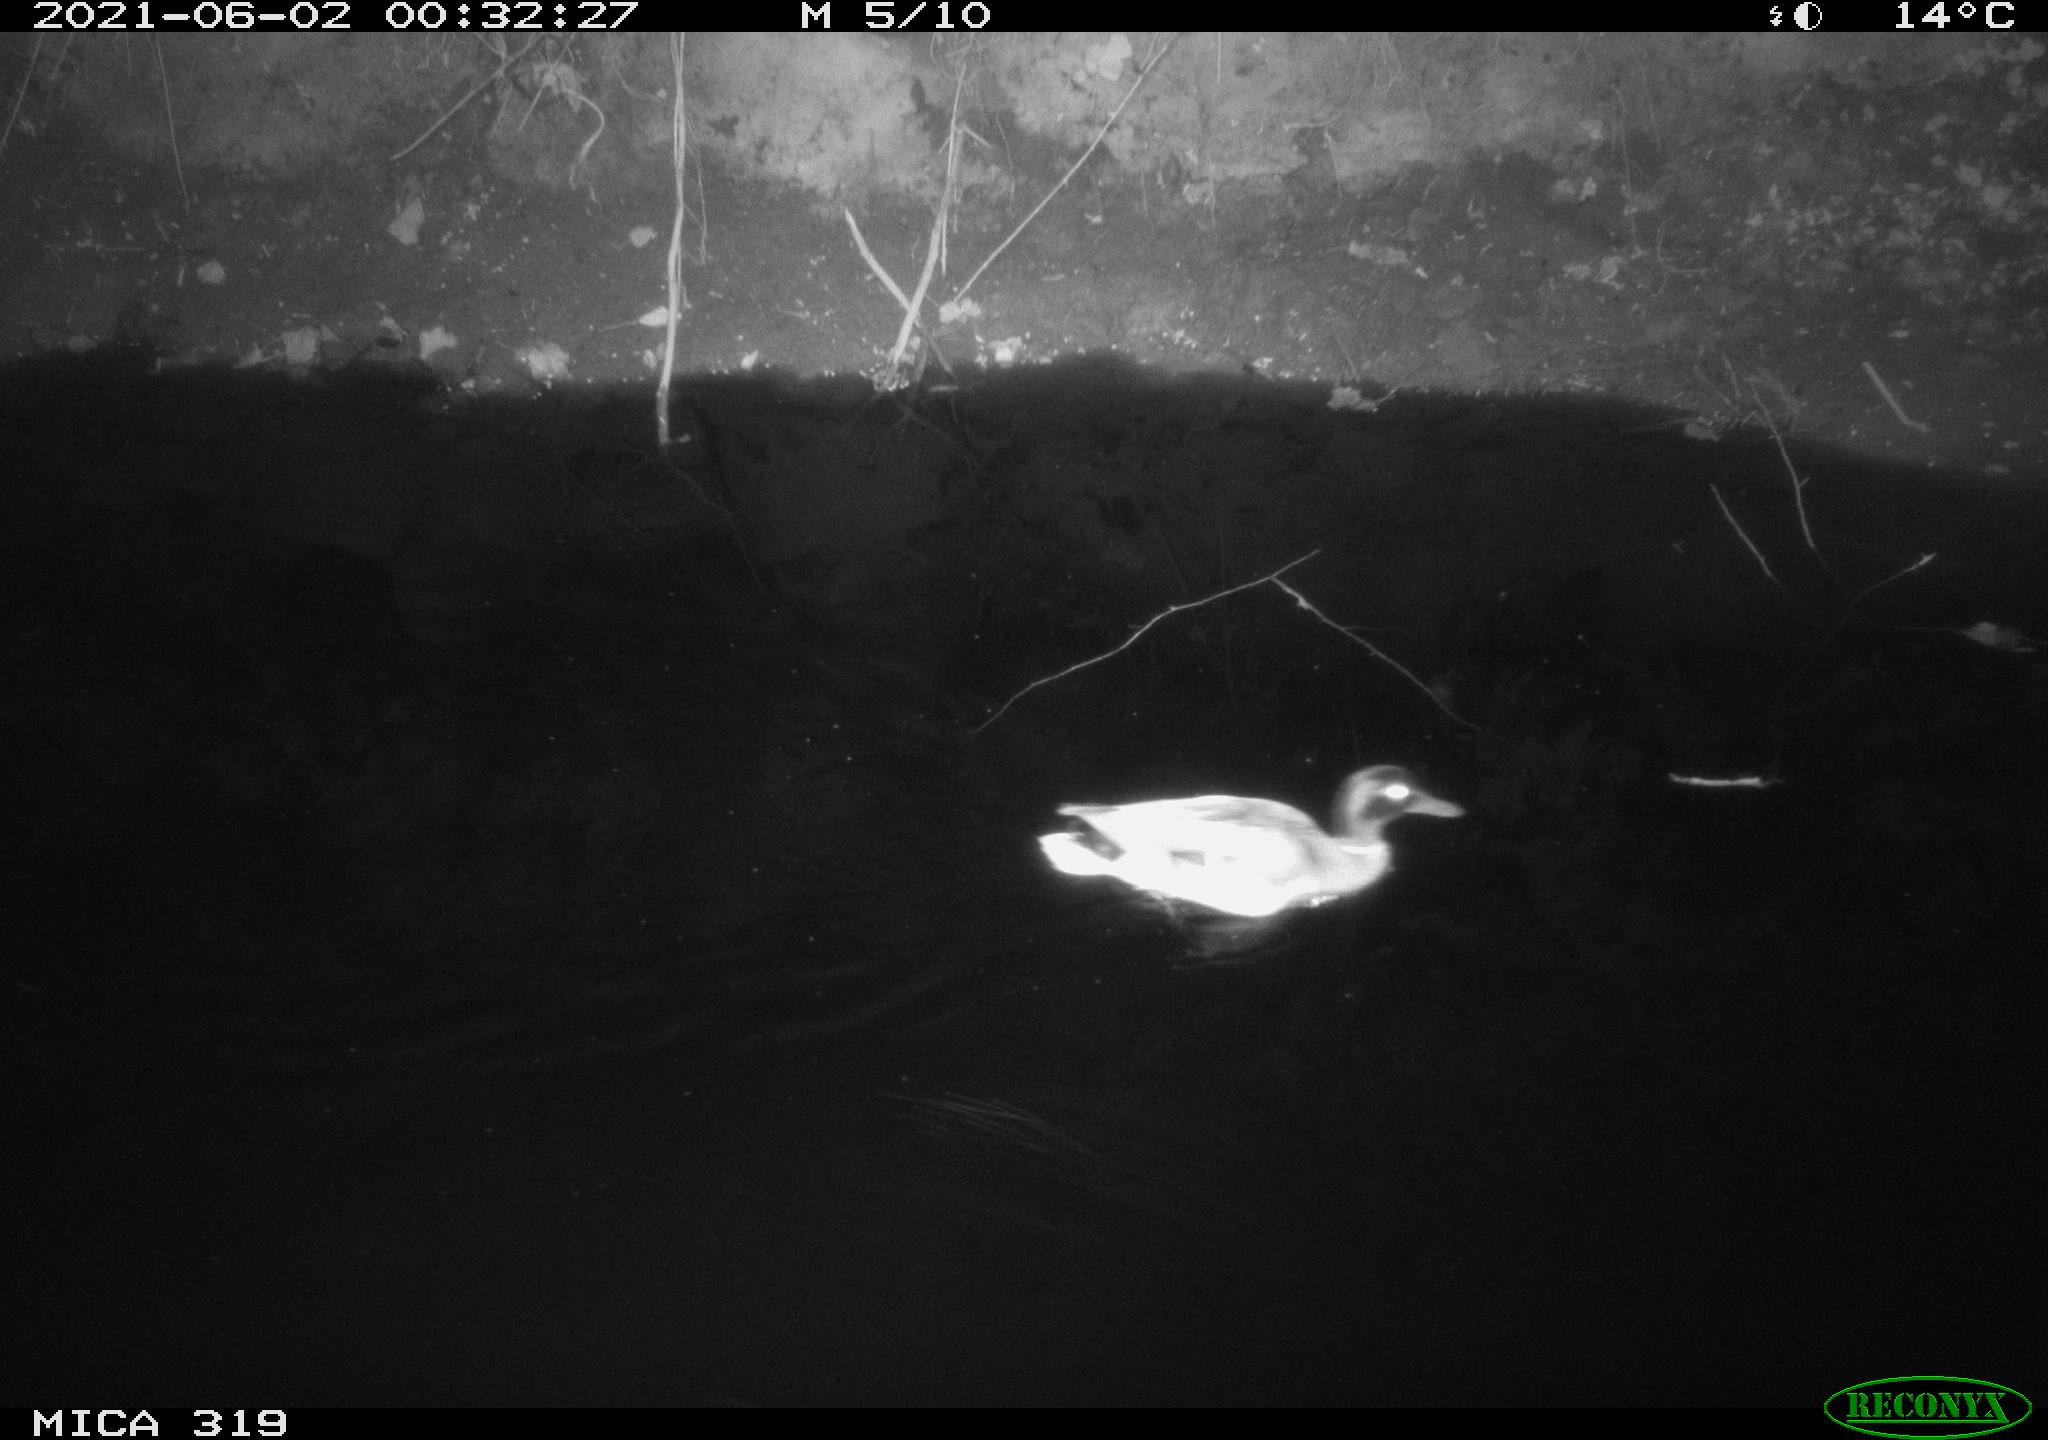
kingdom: Animalia
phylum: Chordata
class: Aves
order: Anseriformes
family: Anatidae
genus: Anas
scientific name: Anas platyrhynchos
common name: Mallard
